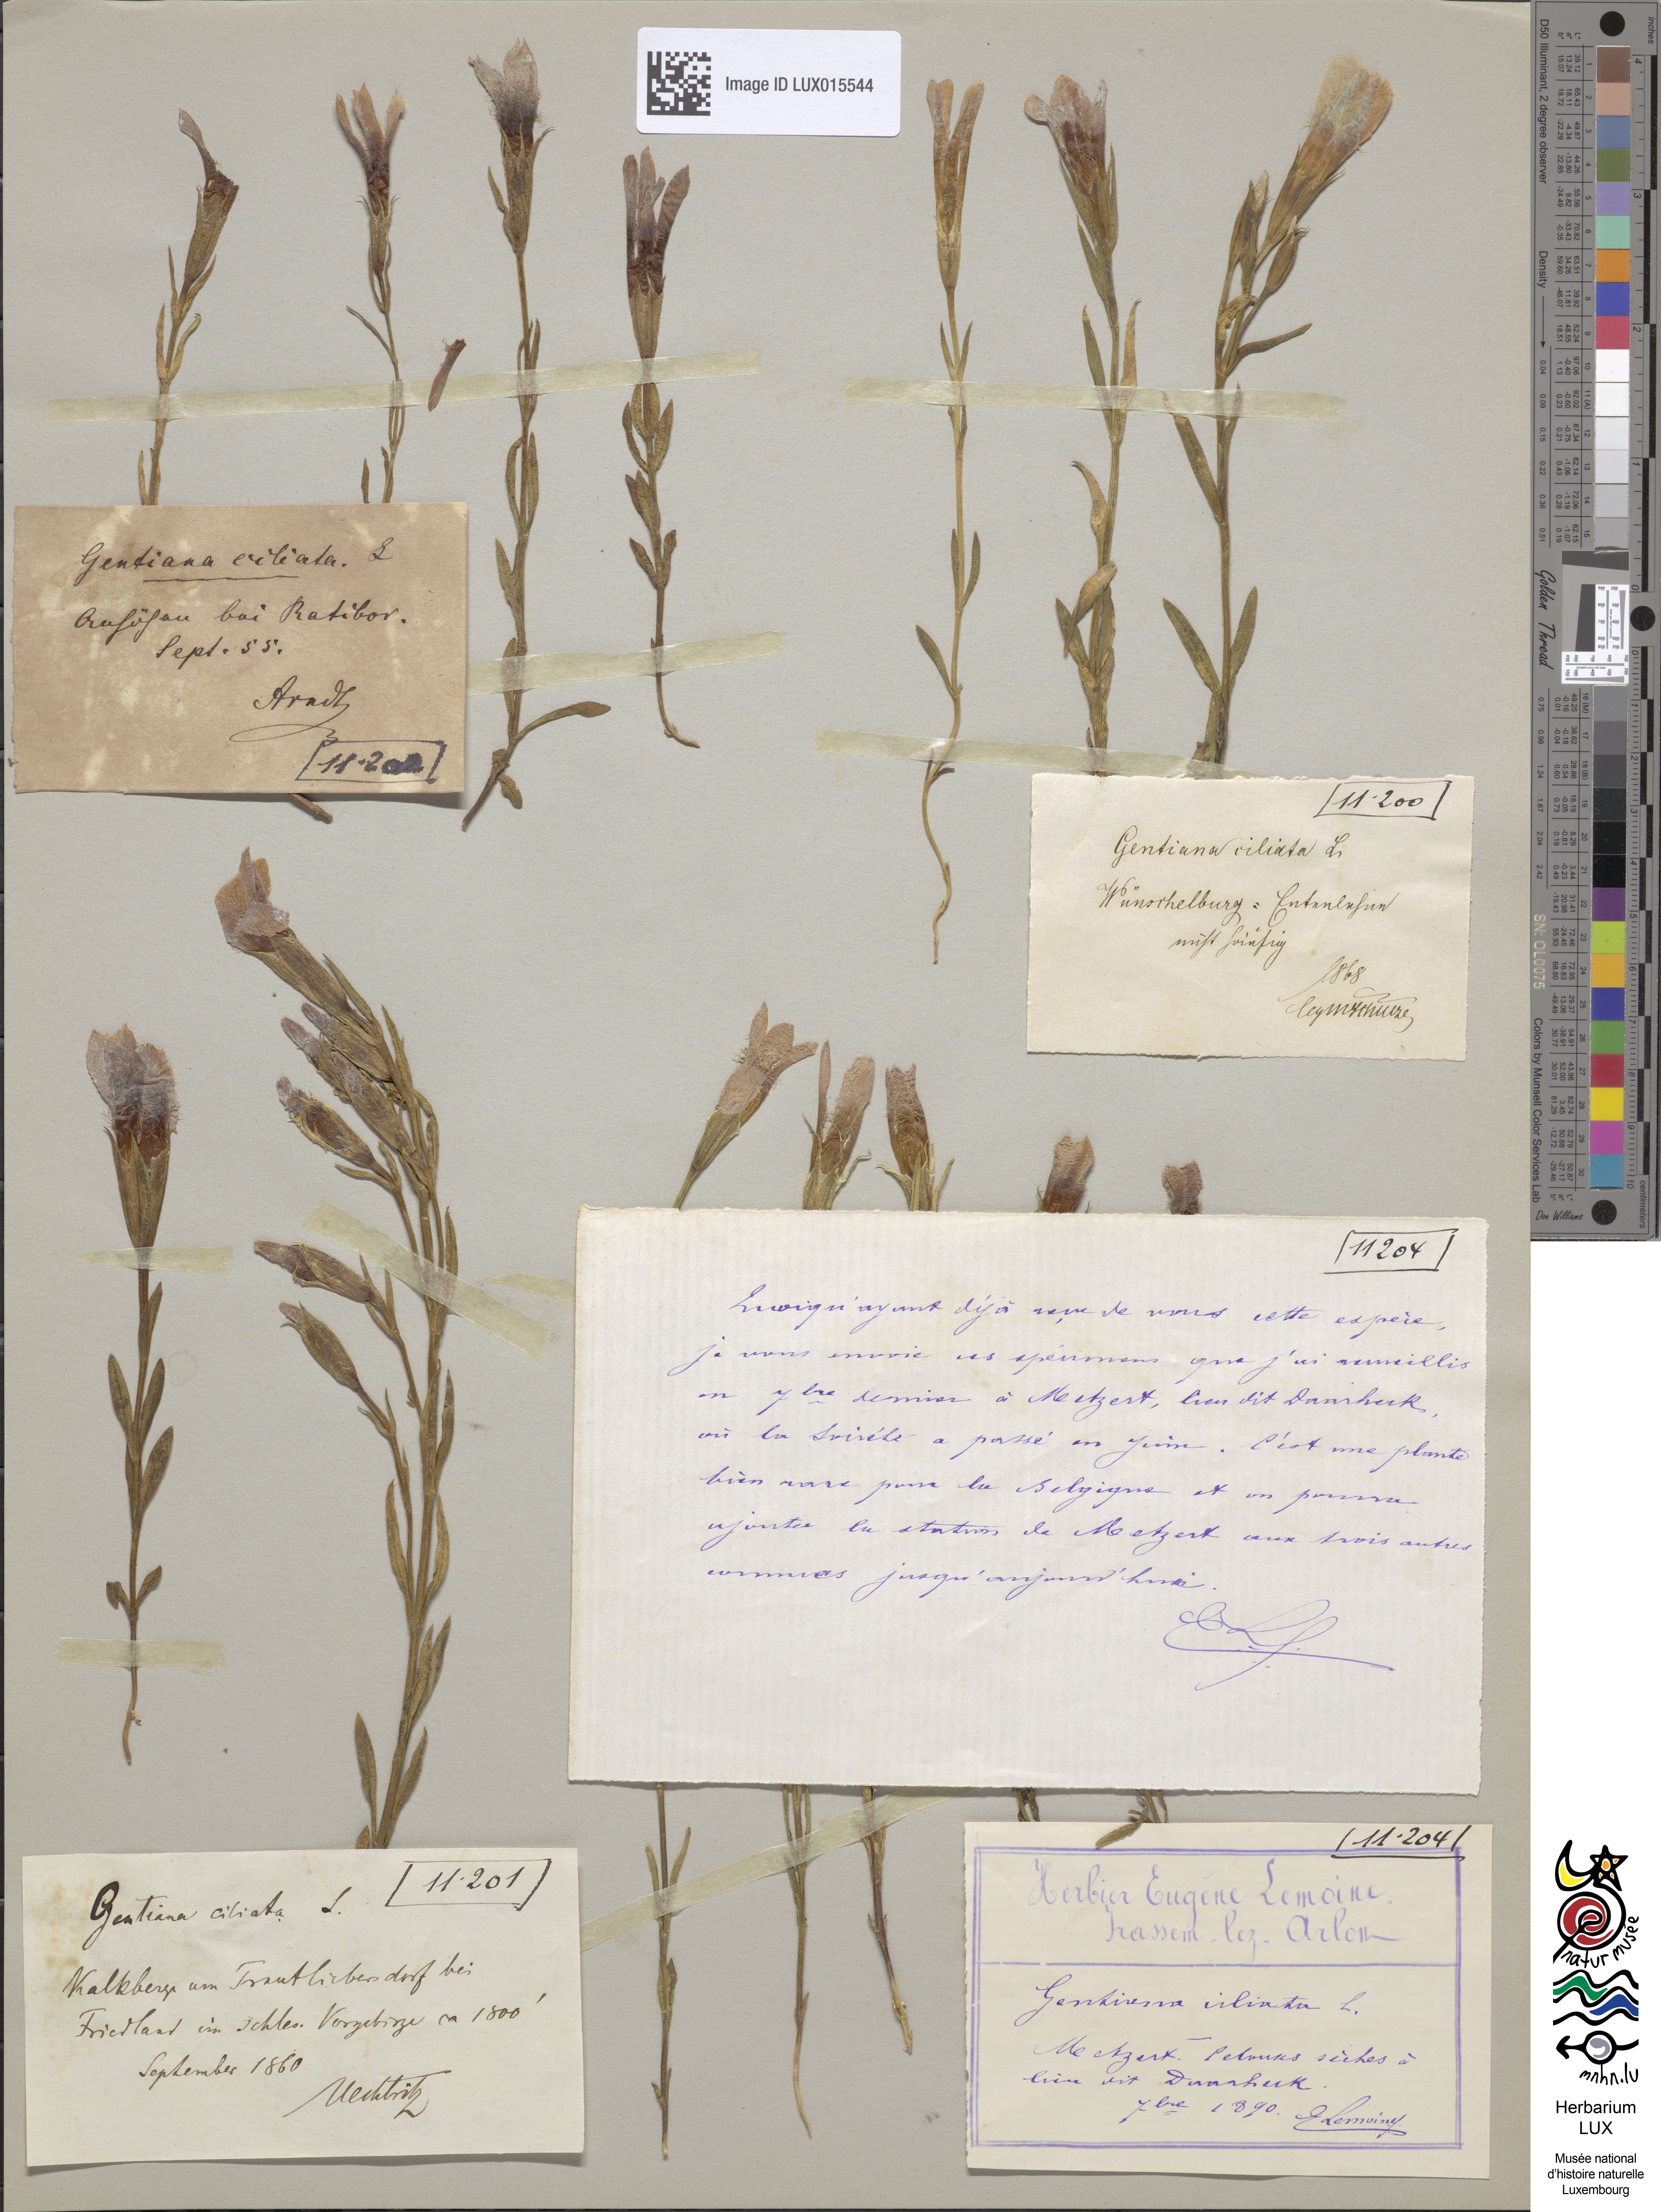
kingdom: Plantae
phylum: Tracheophyta
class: Magnoliopsida
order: Gentianales
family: Gentianaceae
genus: Gentianopsis
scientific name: Gentianopsis ciliata
